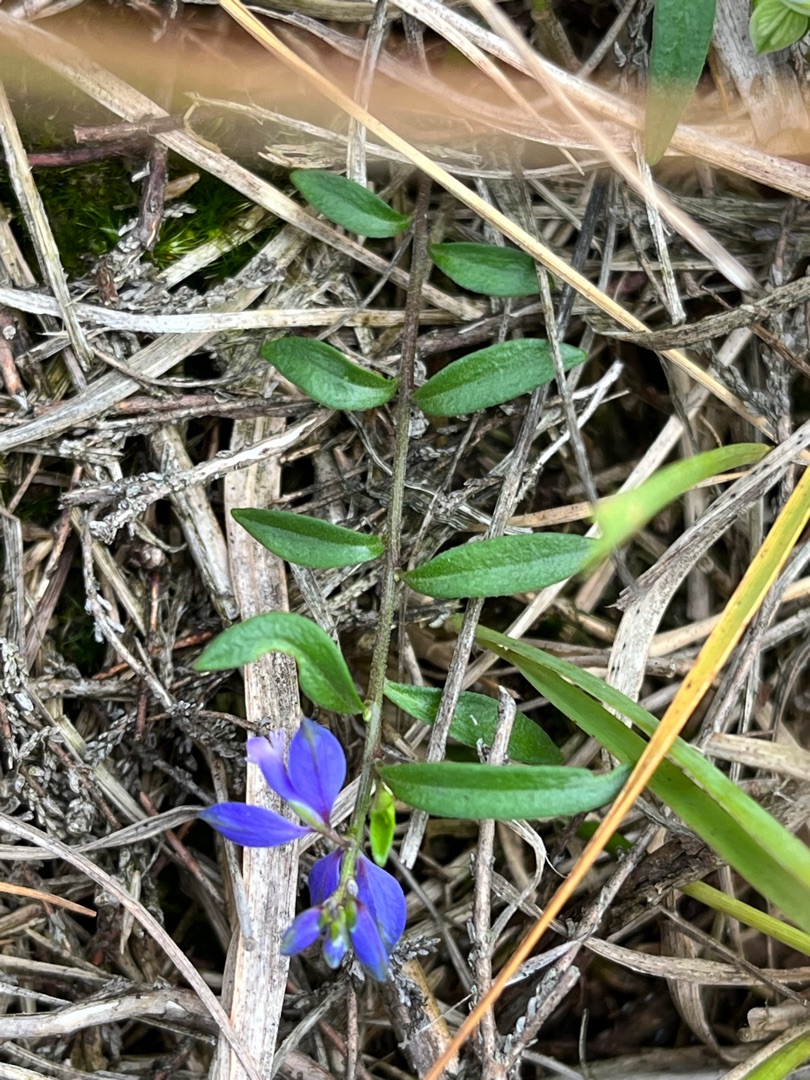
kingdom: Plantae
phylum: Tracheophyta
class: Magnoliopsida
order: Fabales
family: Polygalaceae
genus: Polygala
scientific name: Polygala serpyllifolia
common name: Spæd mælkeurt
